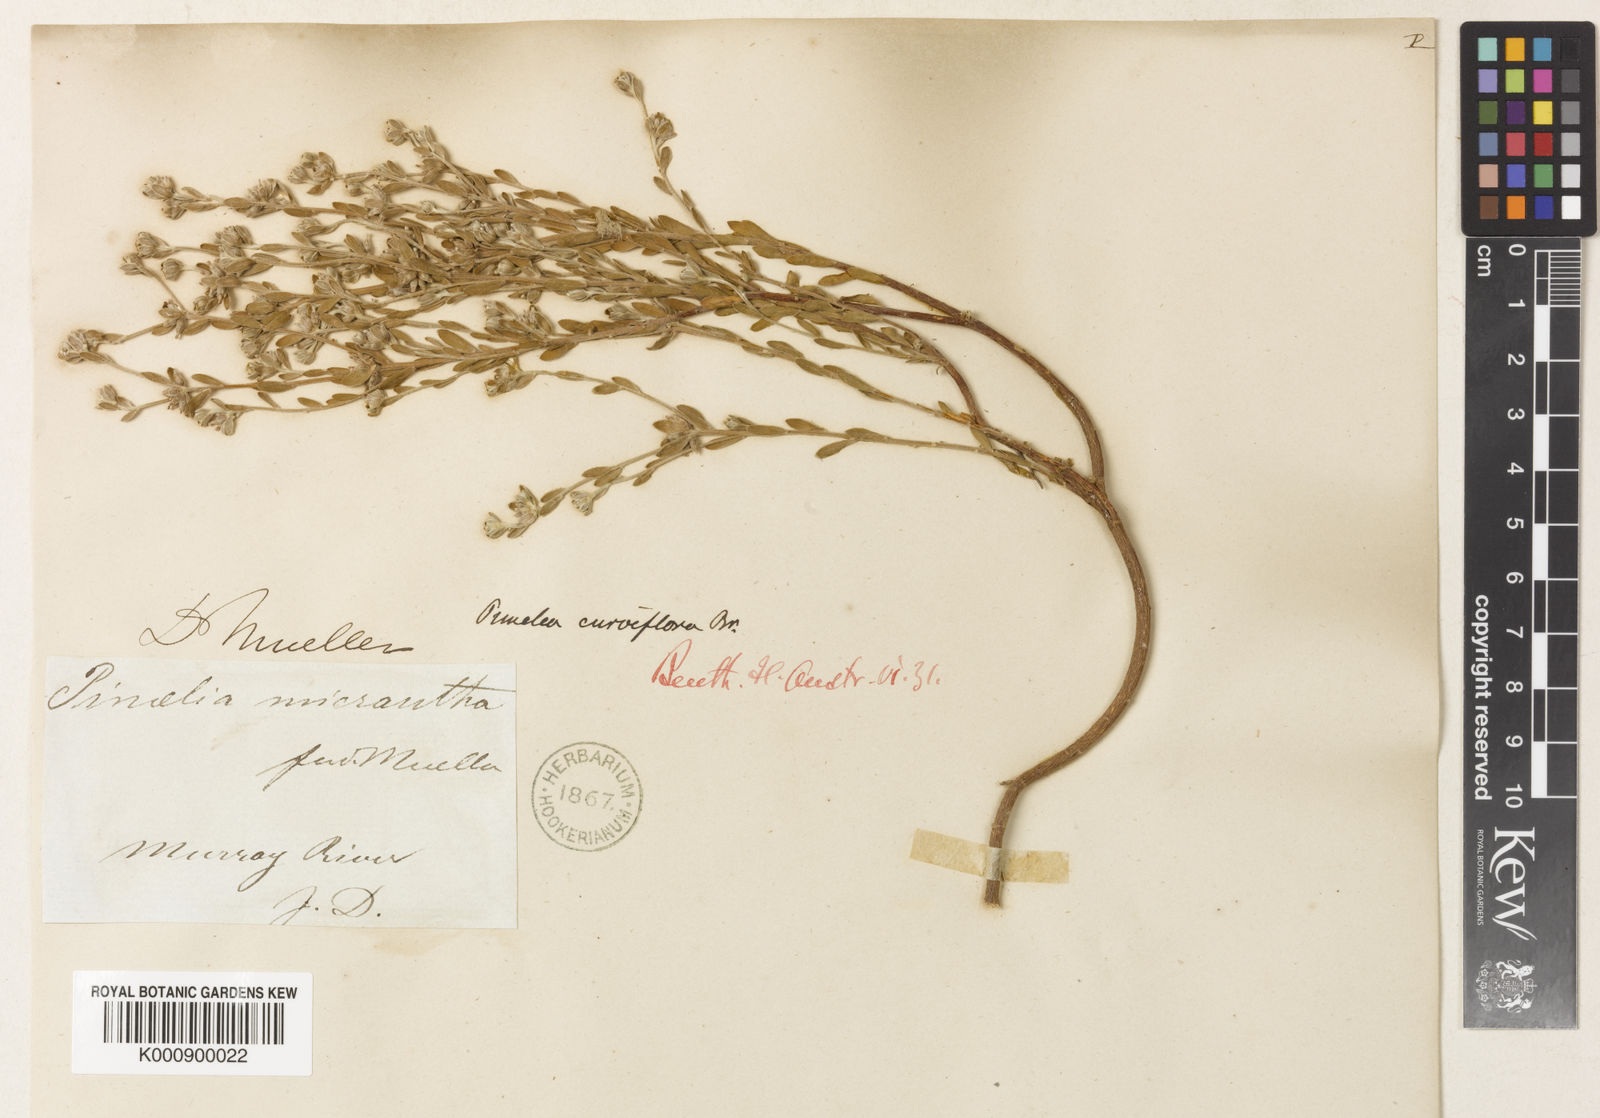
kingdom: Plantae
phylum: Tracheophyta
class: Magnoliopsida
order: Malvales
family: Thymelaeaceae
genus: Pimelea
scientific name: Pimelea curviflora
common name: Curved riceflower
